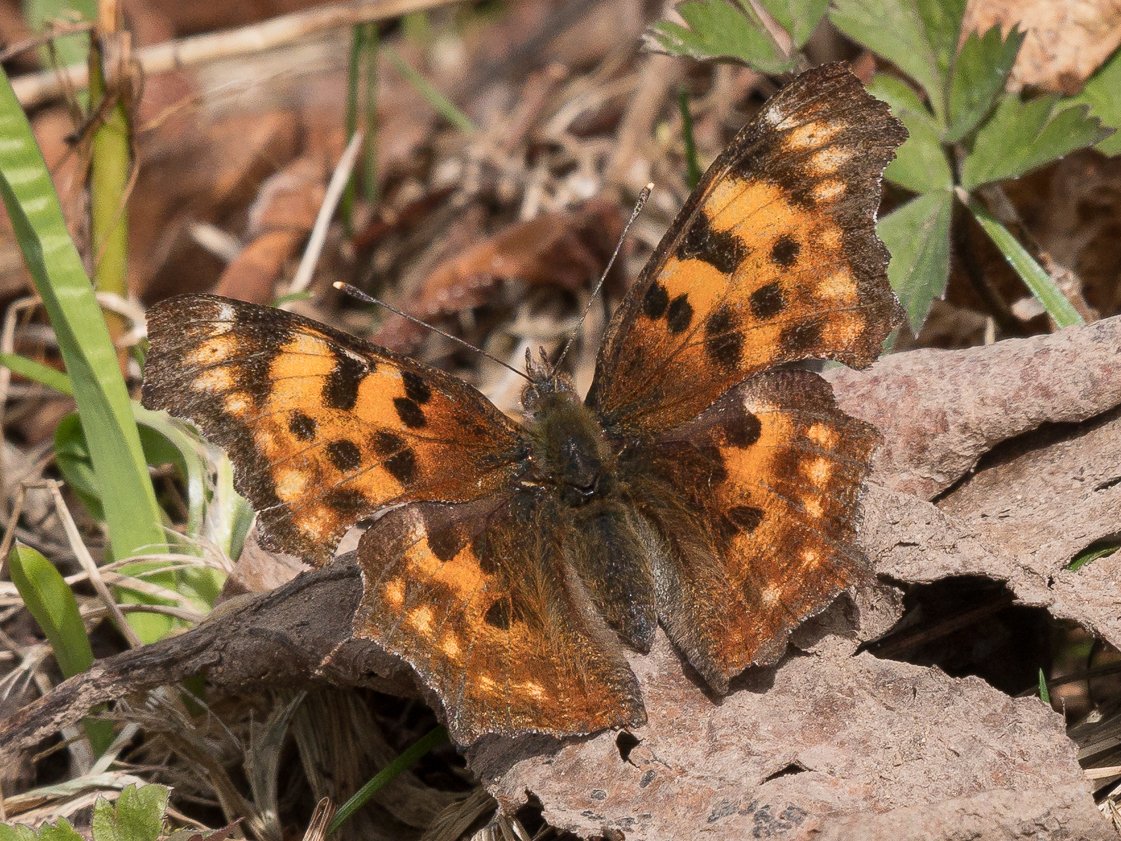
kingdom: Animalia
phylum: Arthropoda
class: Insecta
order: Lepidoptera
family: Nymphalidae
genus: Polygonia
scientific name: Polygonia satyrus
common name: Satyr Comma
